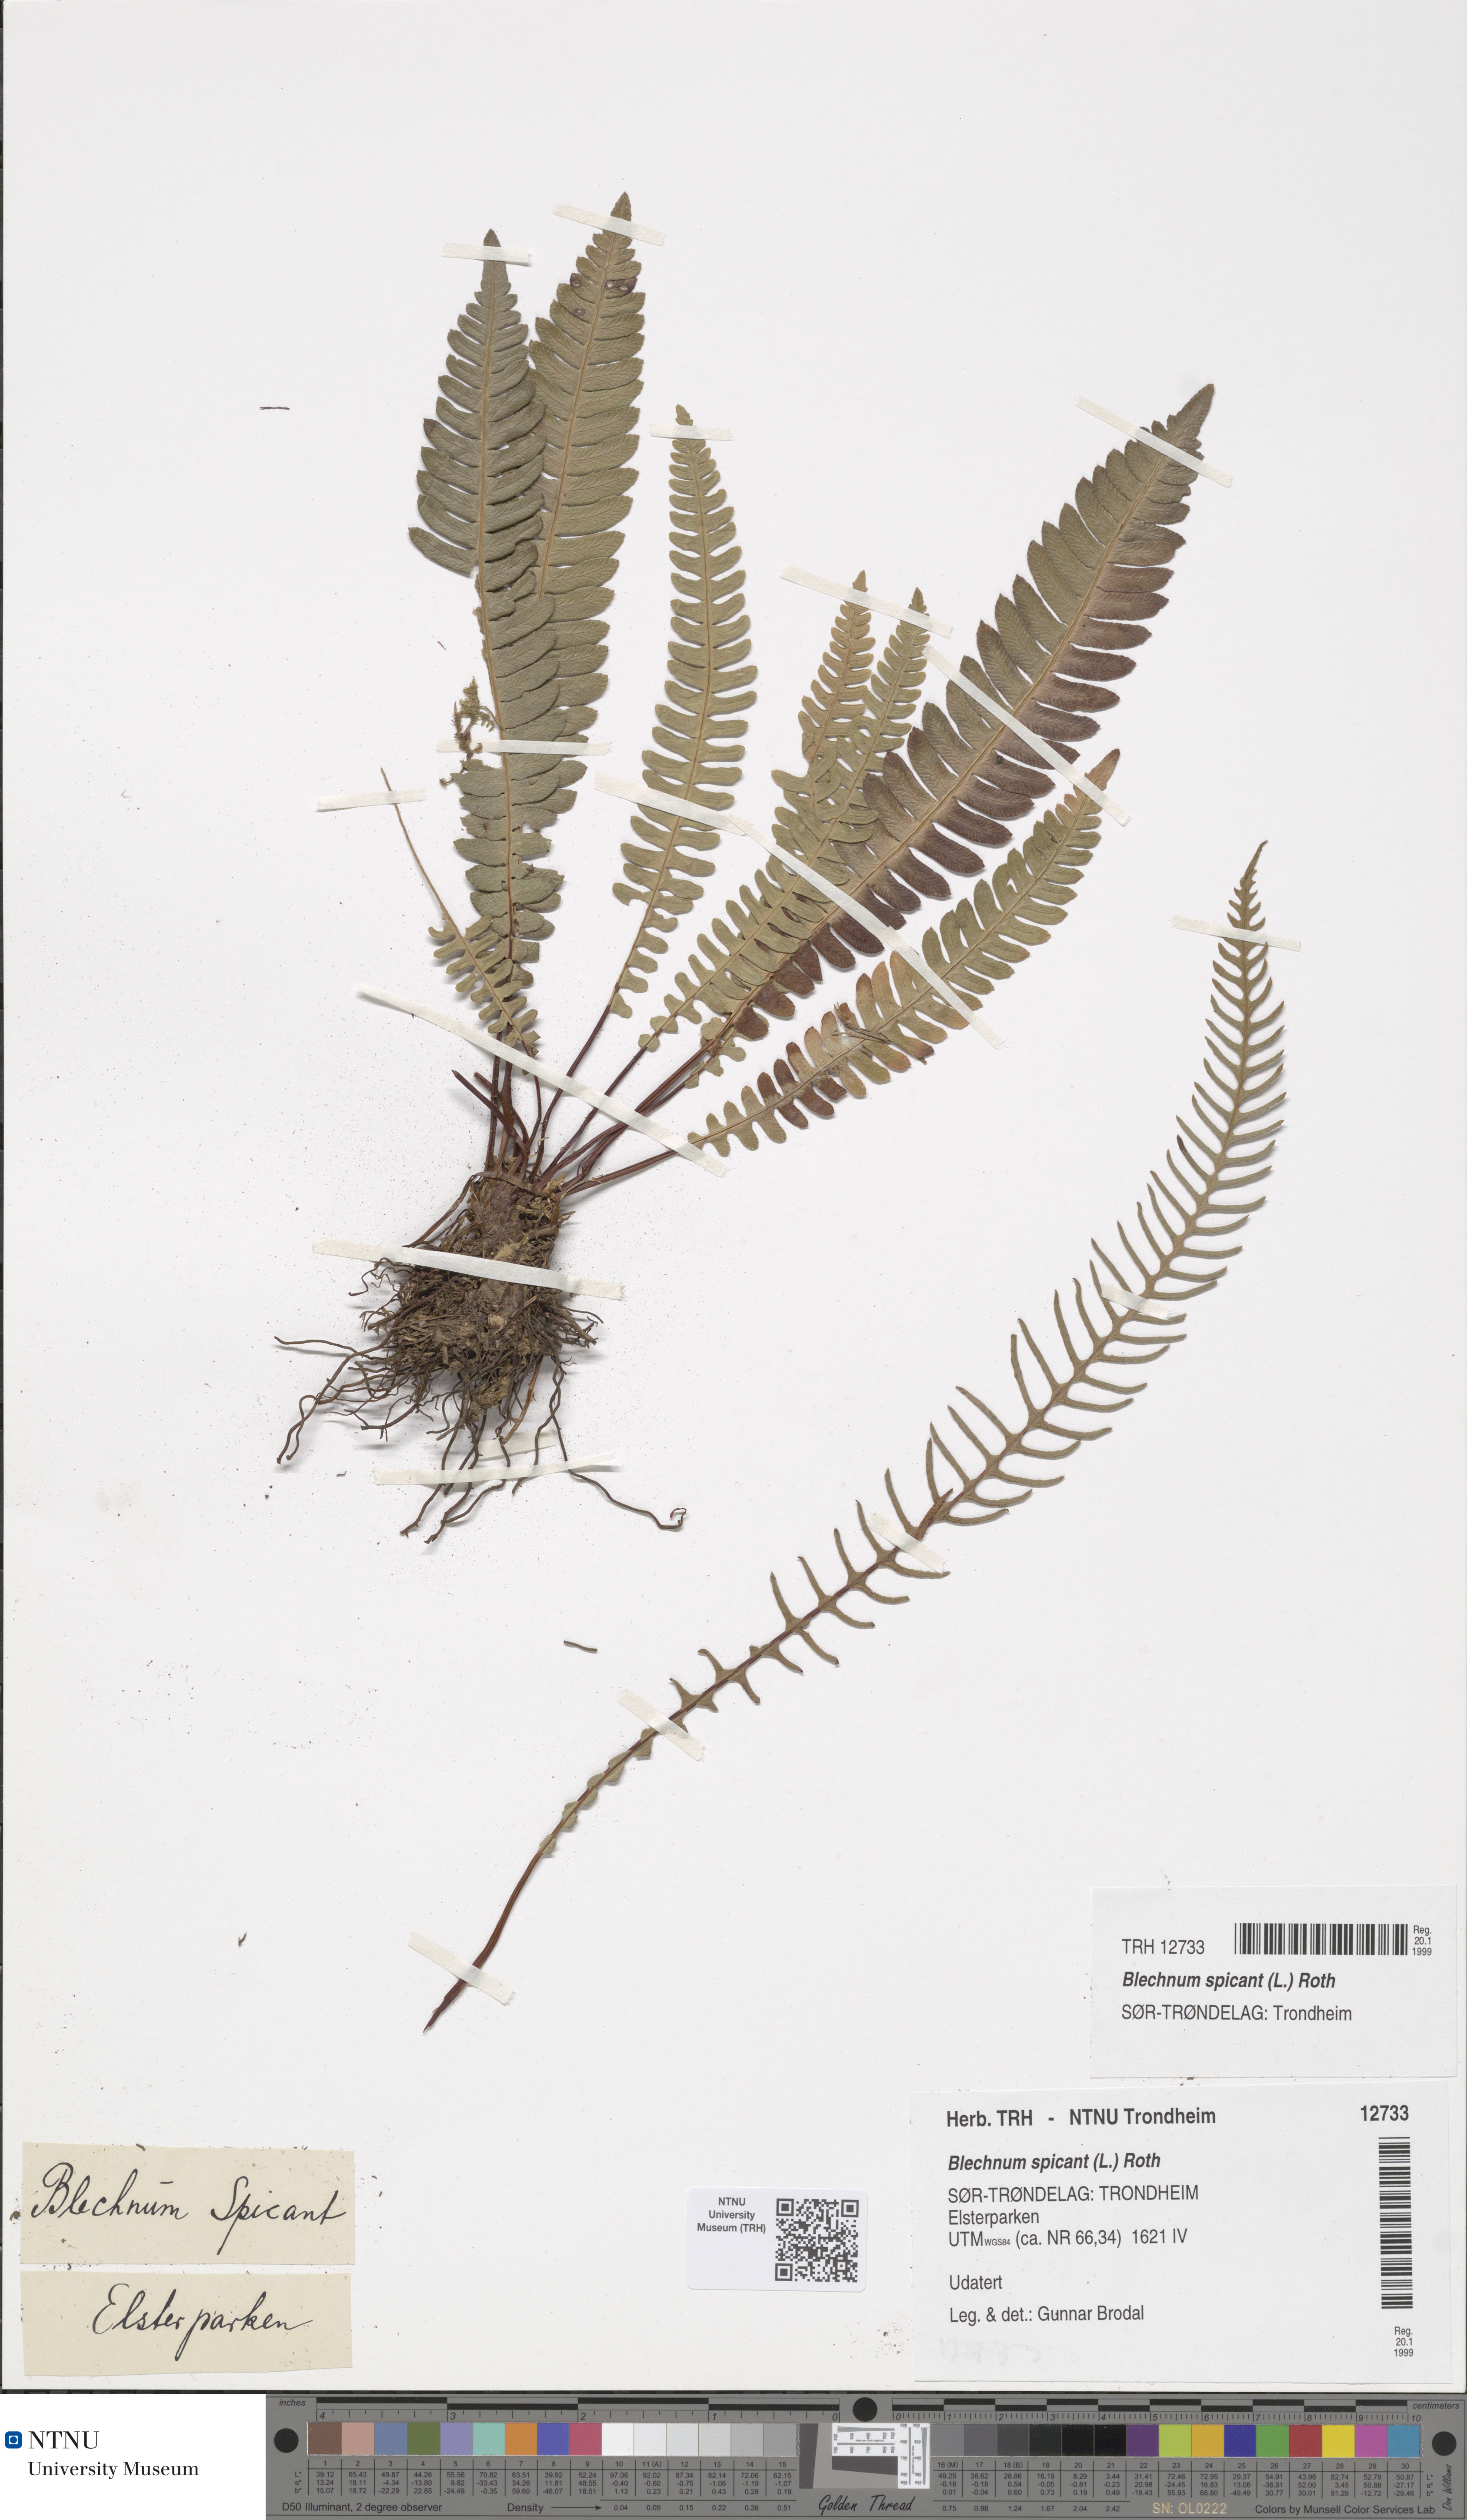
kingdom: Plantae
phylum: Tracheophyta
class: Polypodiopsida
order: Polypodiales
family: Blechnaceae
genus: Struthiopteris
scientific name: Struthiopteris spicant
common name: Deer fern
